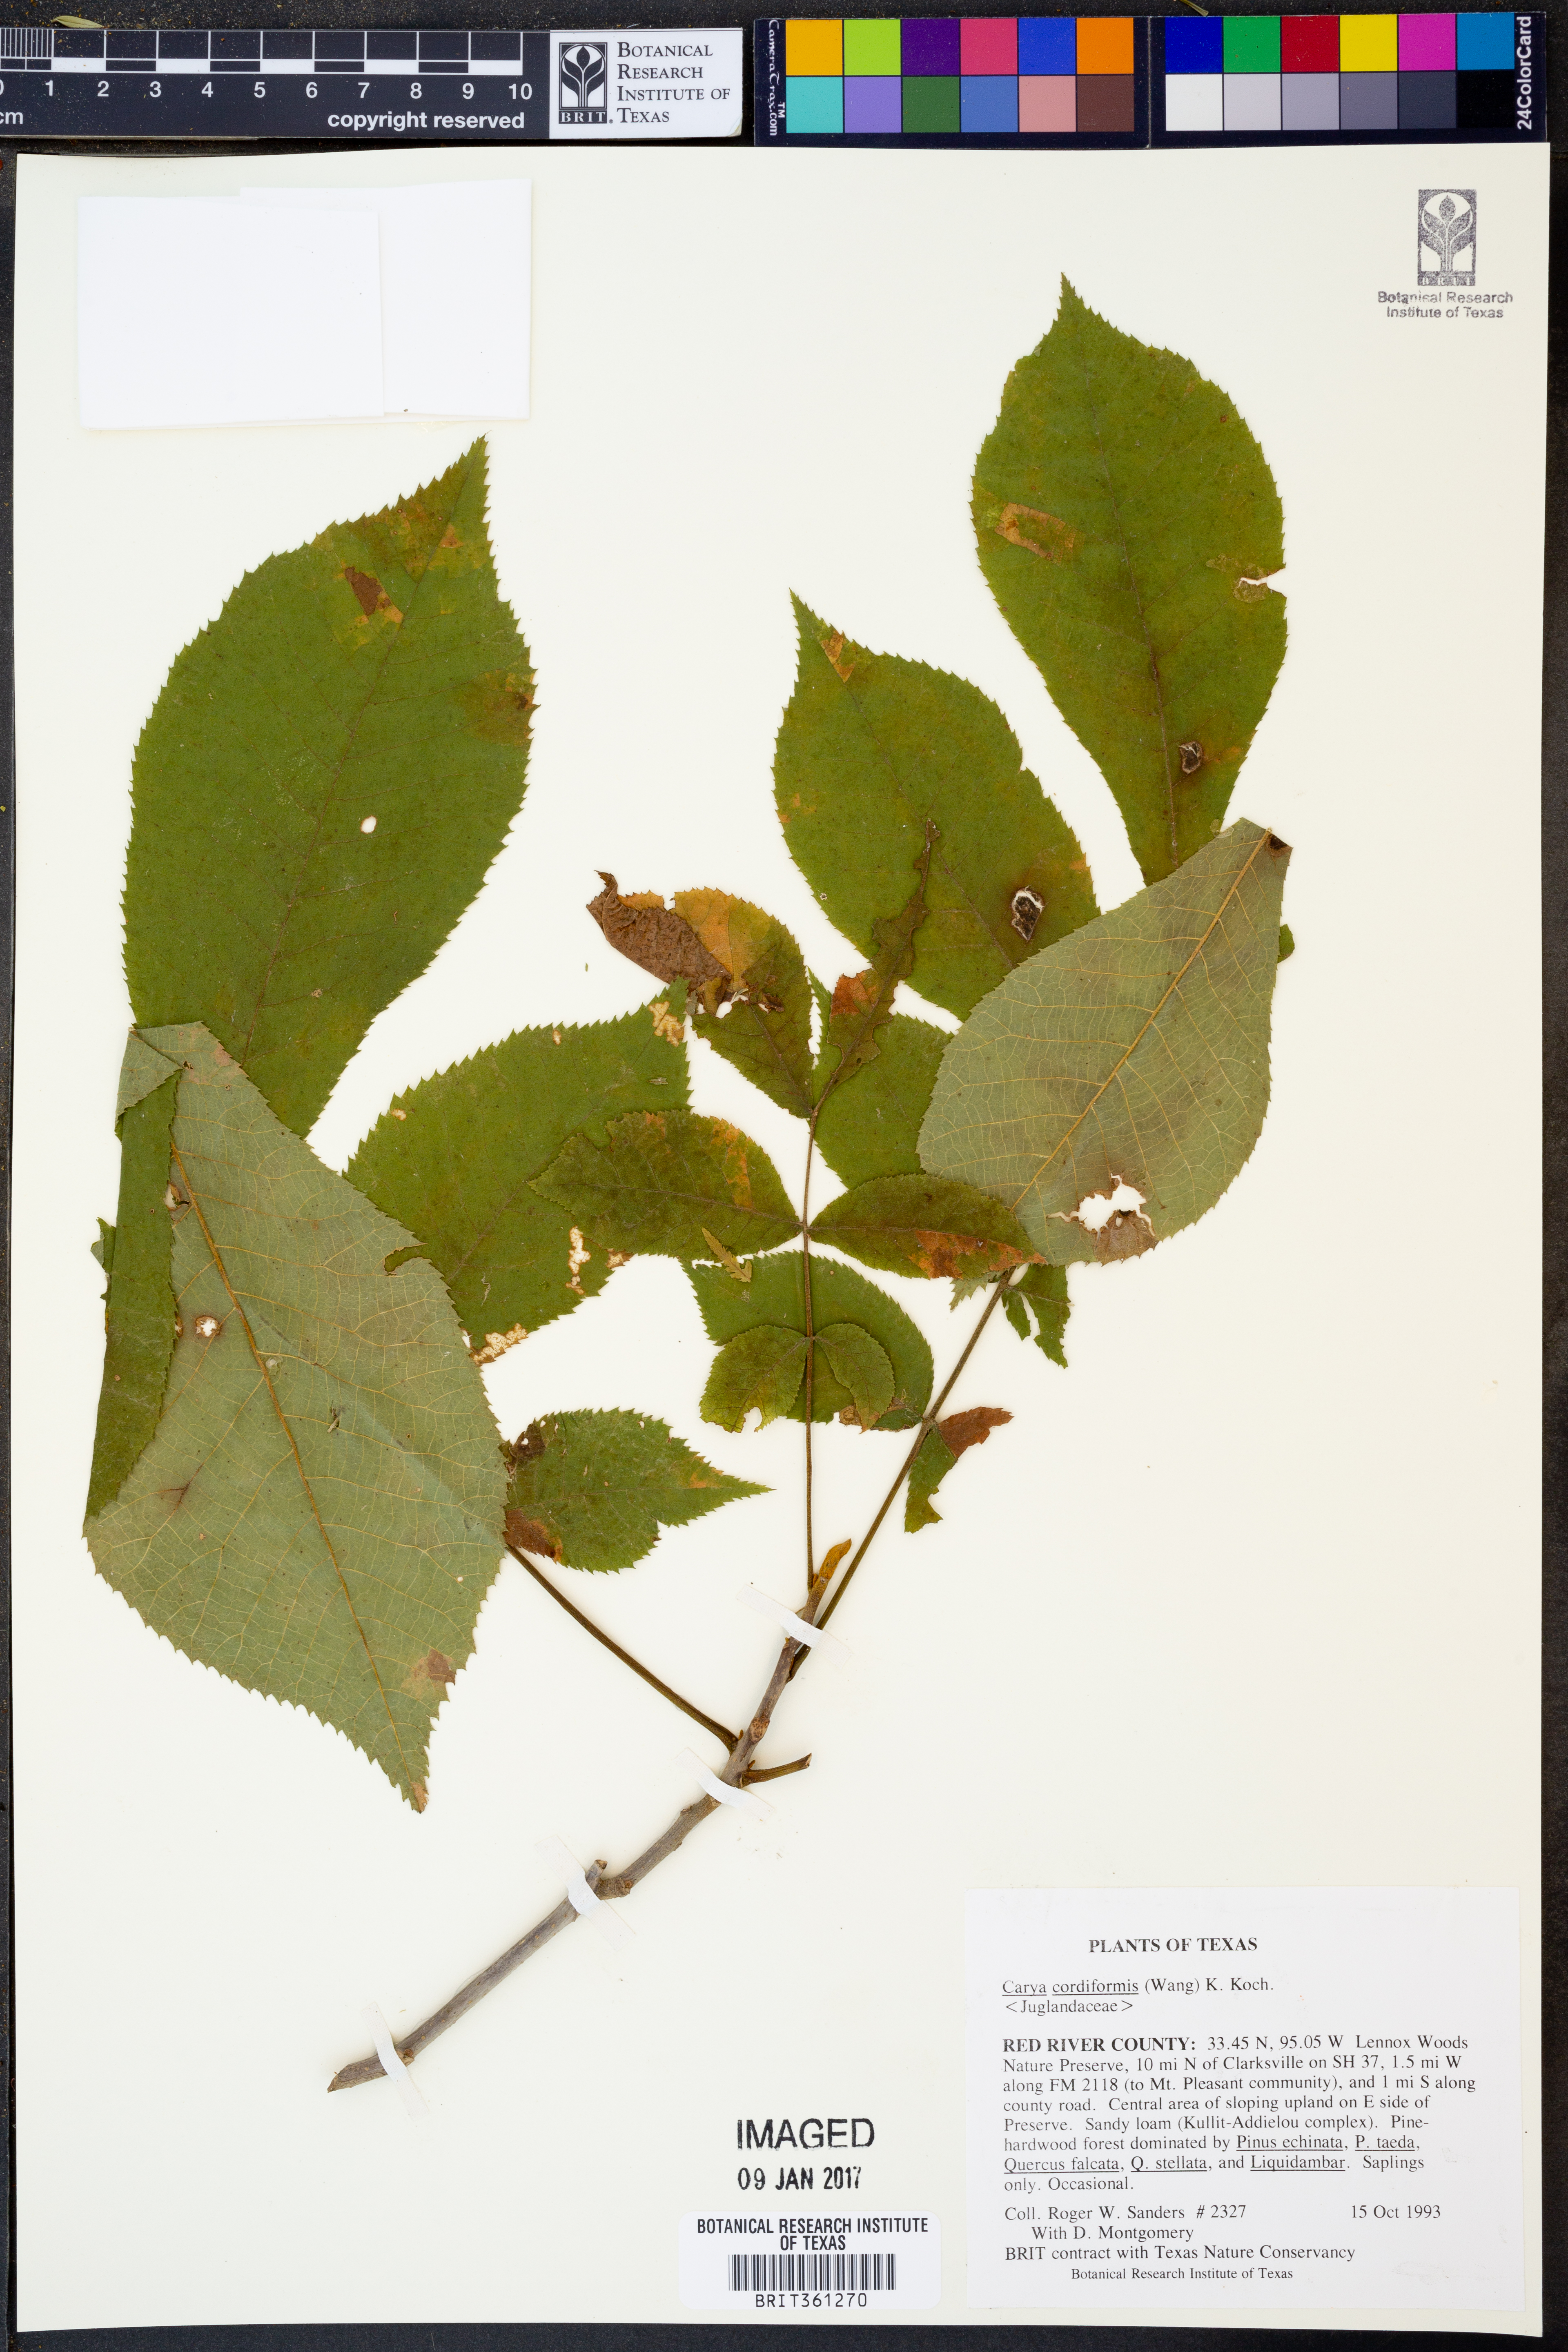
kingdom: Plantae
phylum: Tracheophyta
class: Magnoliopsida
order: Fagales
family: Juglandaceae
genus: Carya
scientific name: Carya cordiformis
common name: Bitternut hickory
